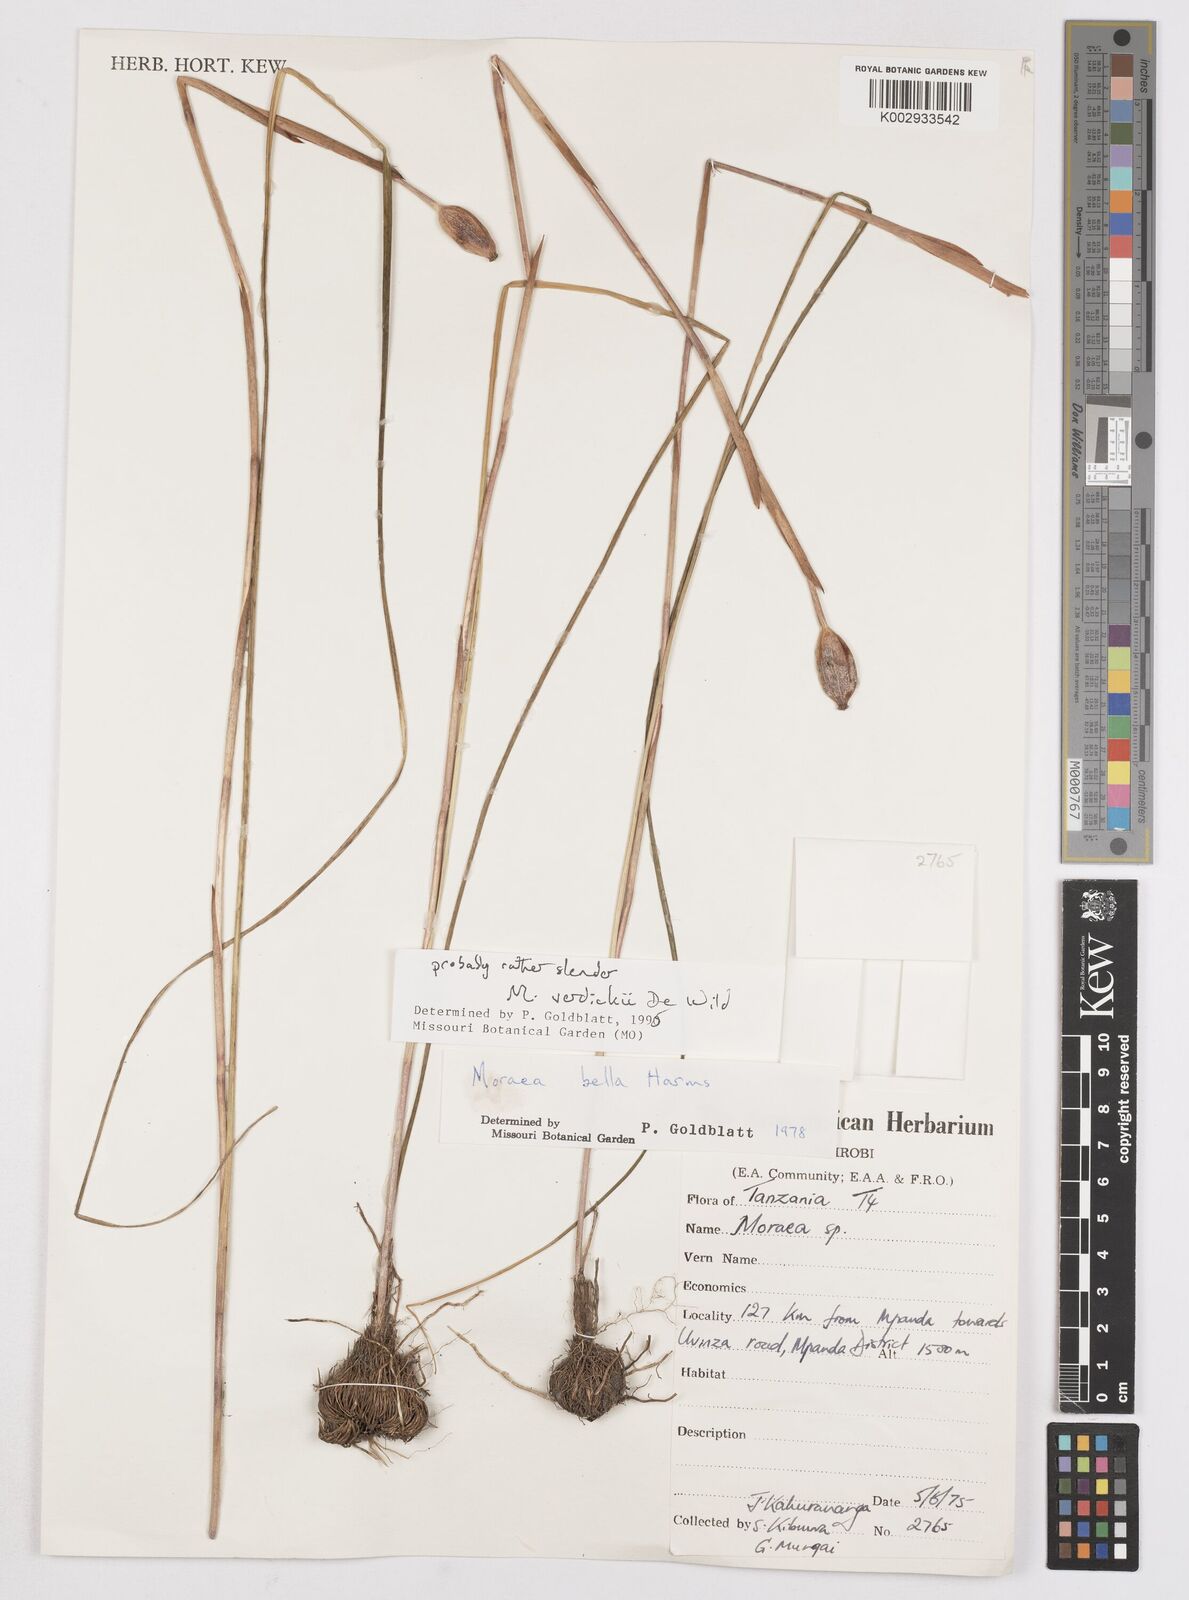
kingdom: Plantae
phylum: Tracheophyta
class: Liliopsida
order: Asparagales
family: Iridaceae
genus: Moraea
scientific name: Moraea verdickii
